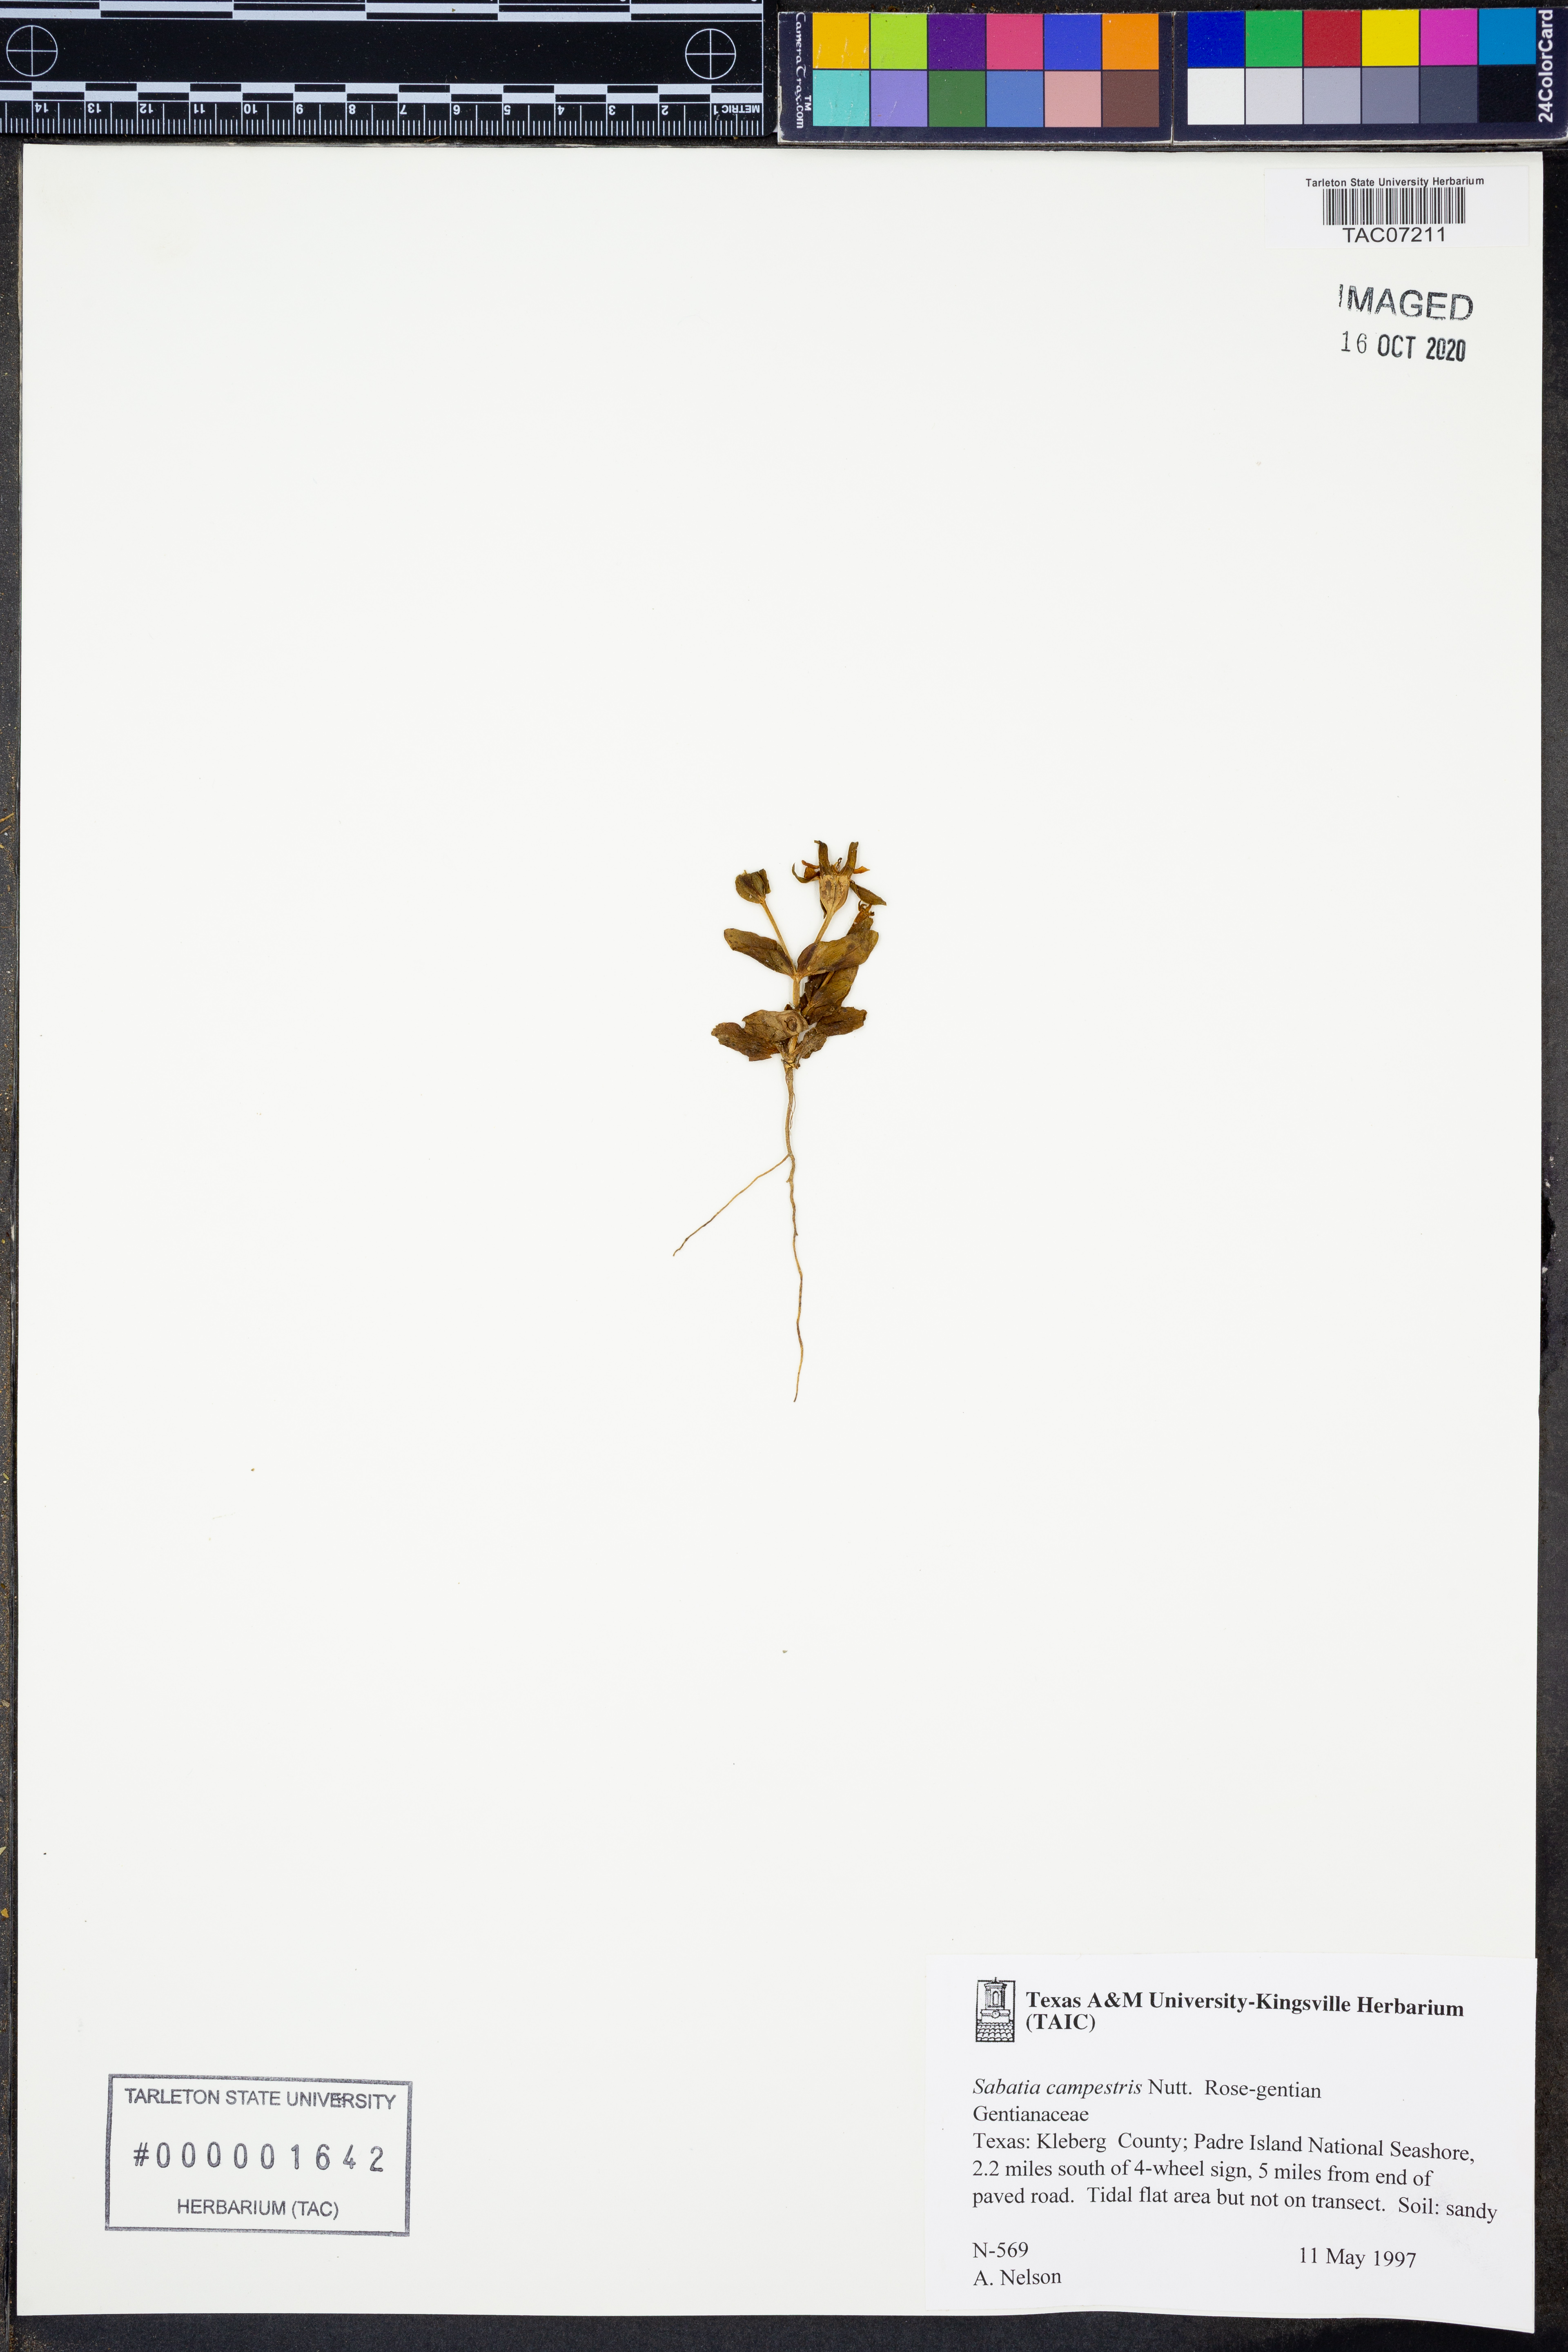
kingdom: Plantae
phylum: Tracheophyta
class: Magnoliopsida
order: Gentianales
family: Gentianaceae
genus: Sabatia
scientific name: Sabatia campestris
